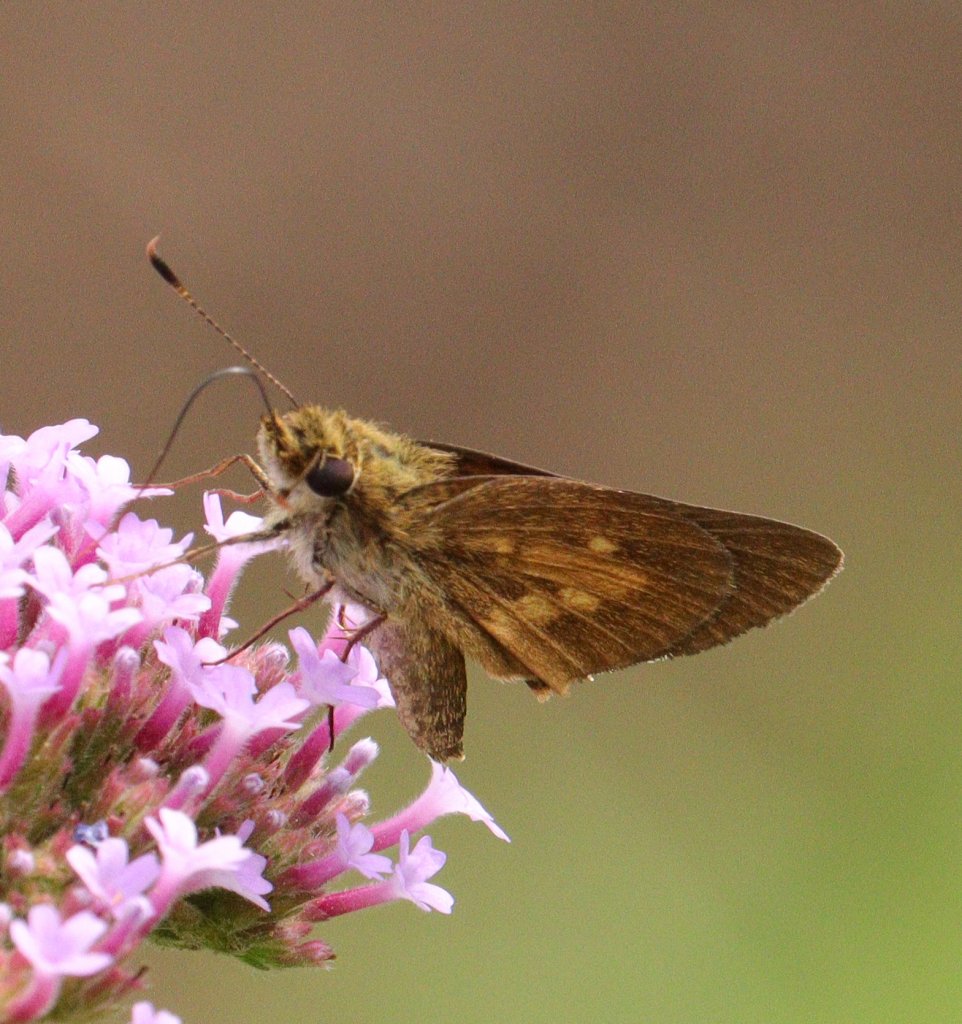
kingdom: Animalia
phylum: Arthropoda
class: Insecta
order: Lepidoptera
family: Hesperiidae
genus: Poanes
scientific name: Poanes viator
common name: Broad-winged Skipper
